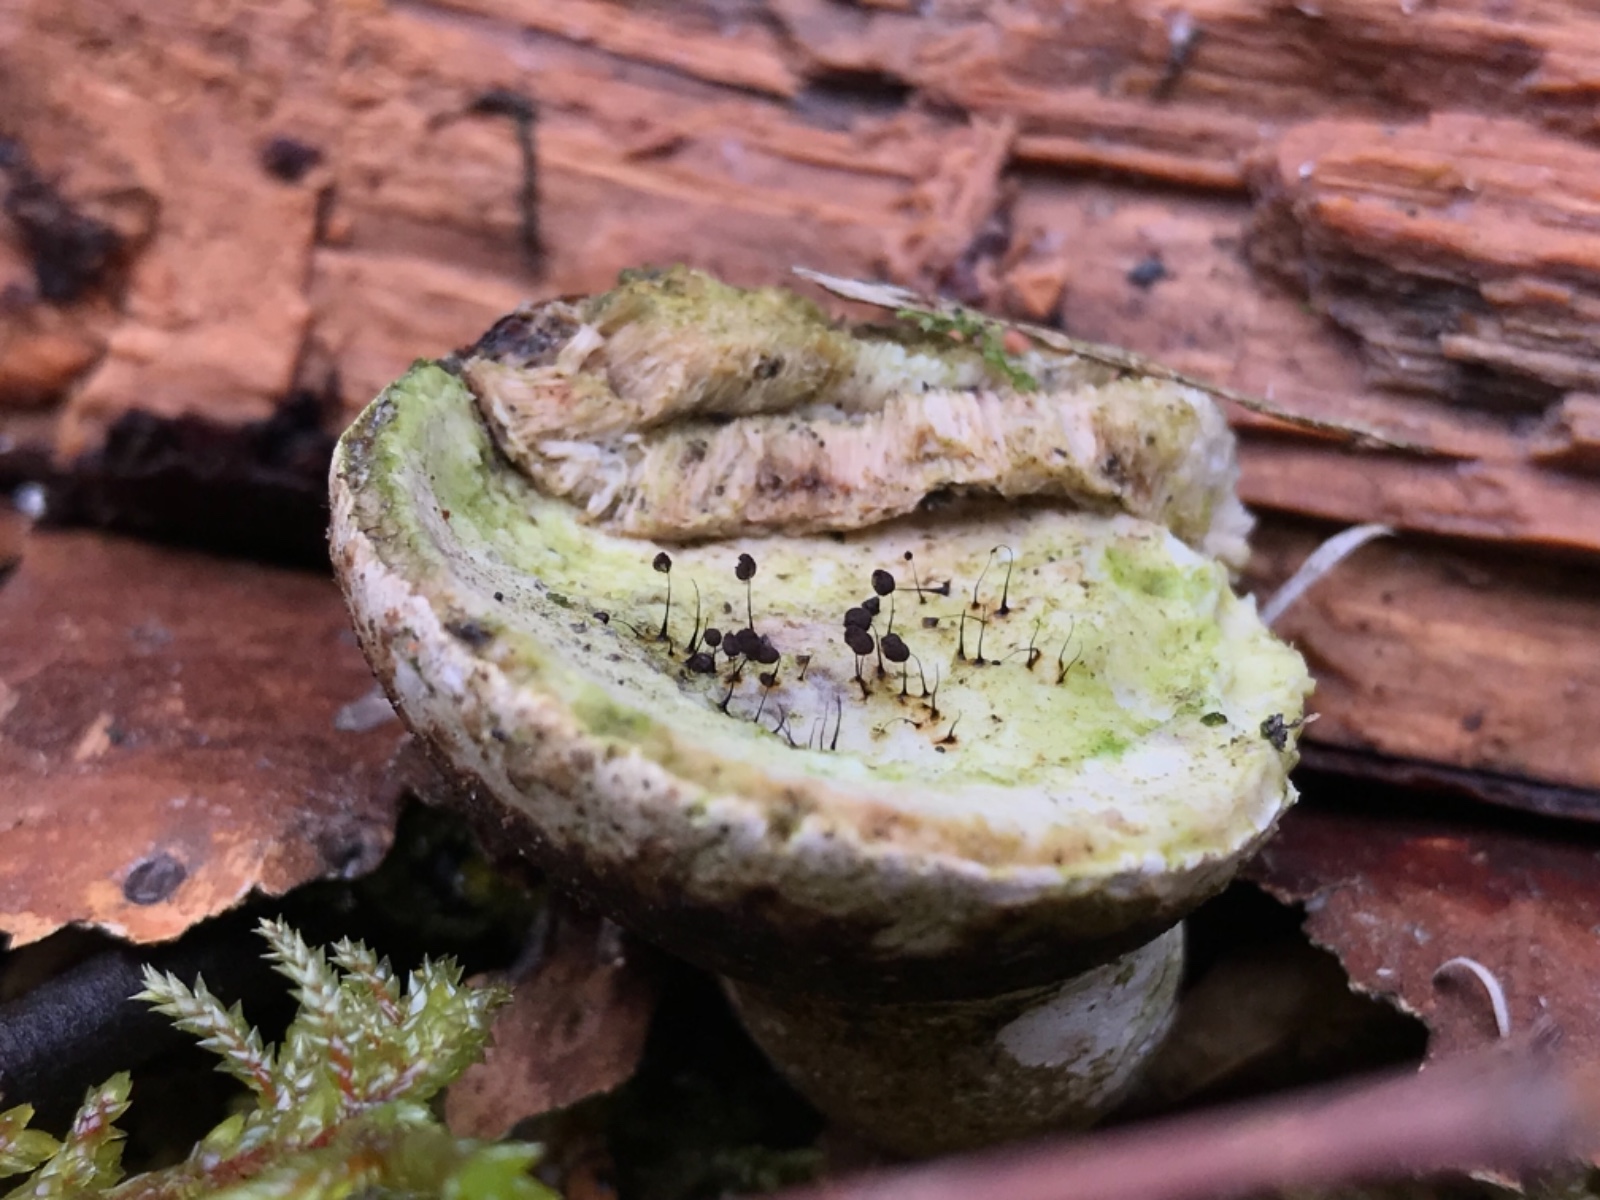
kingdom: Protozoa
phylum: Mycetozoa
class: Myxomycetes
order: Stemonitidales
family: Stemonitidaceae
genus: Comatricha
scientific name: Comatricha nigra
